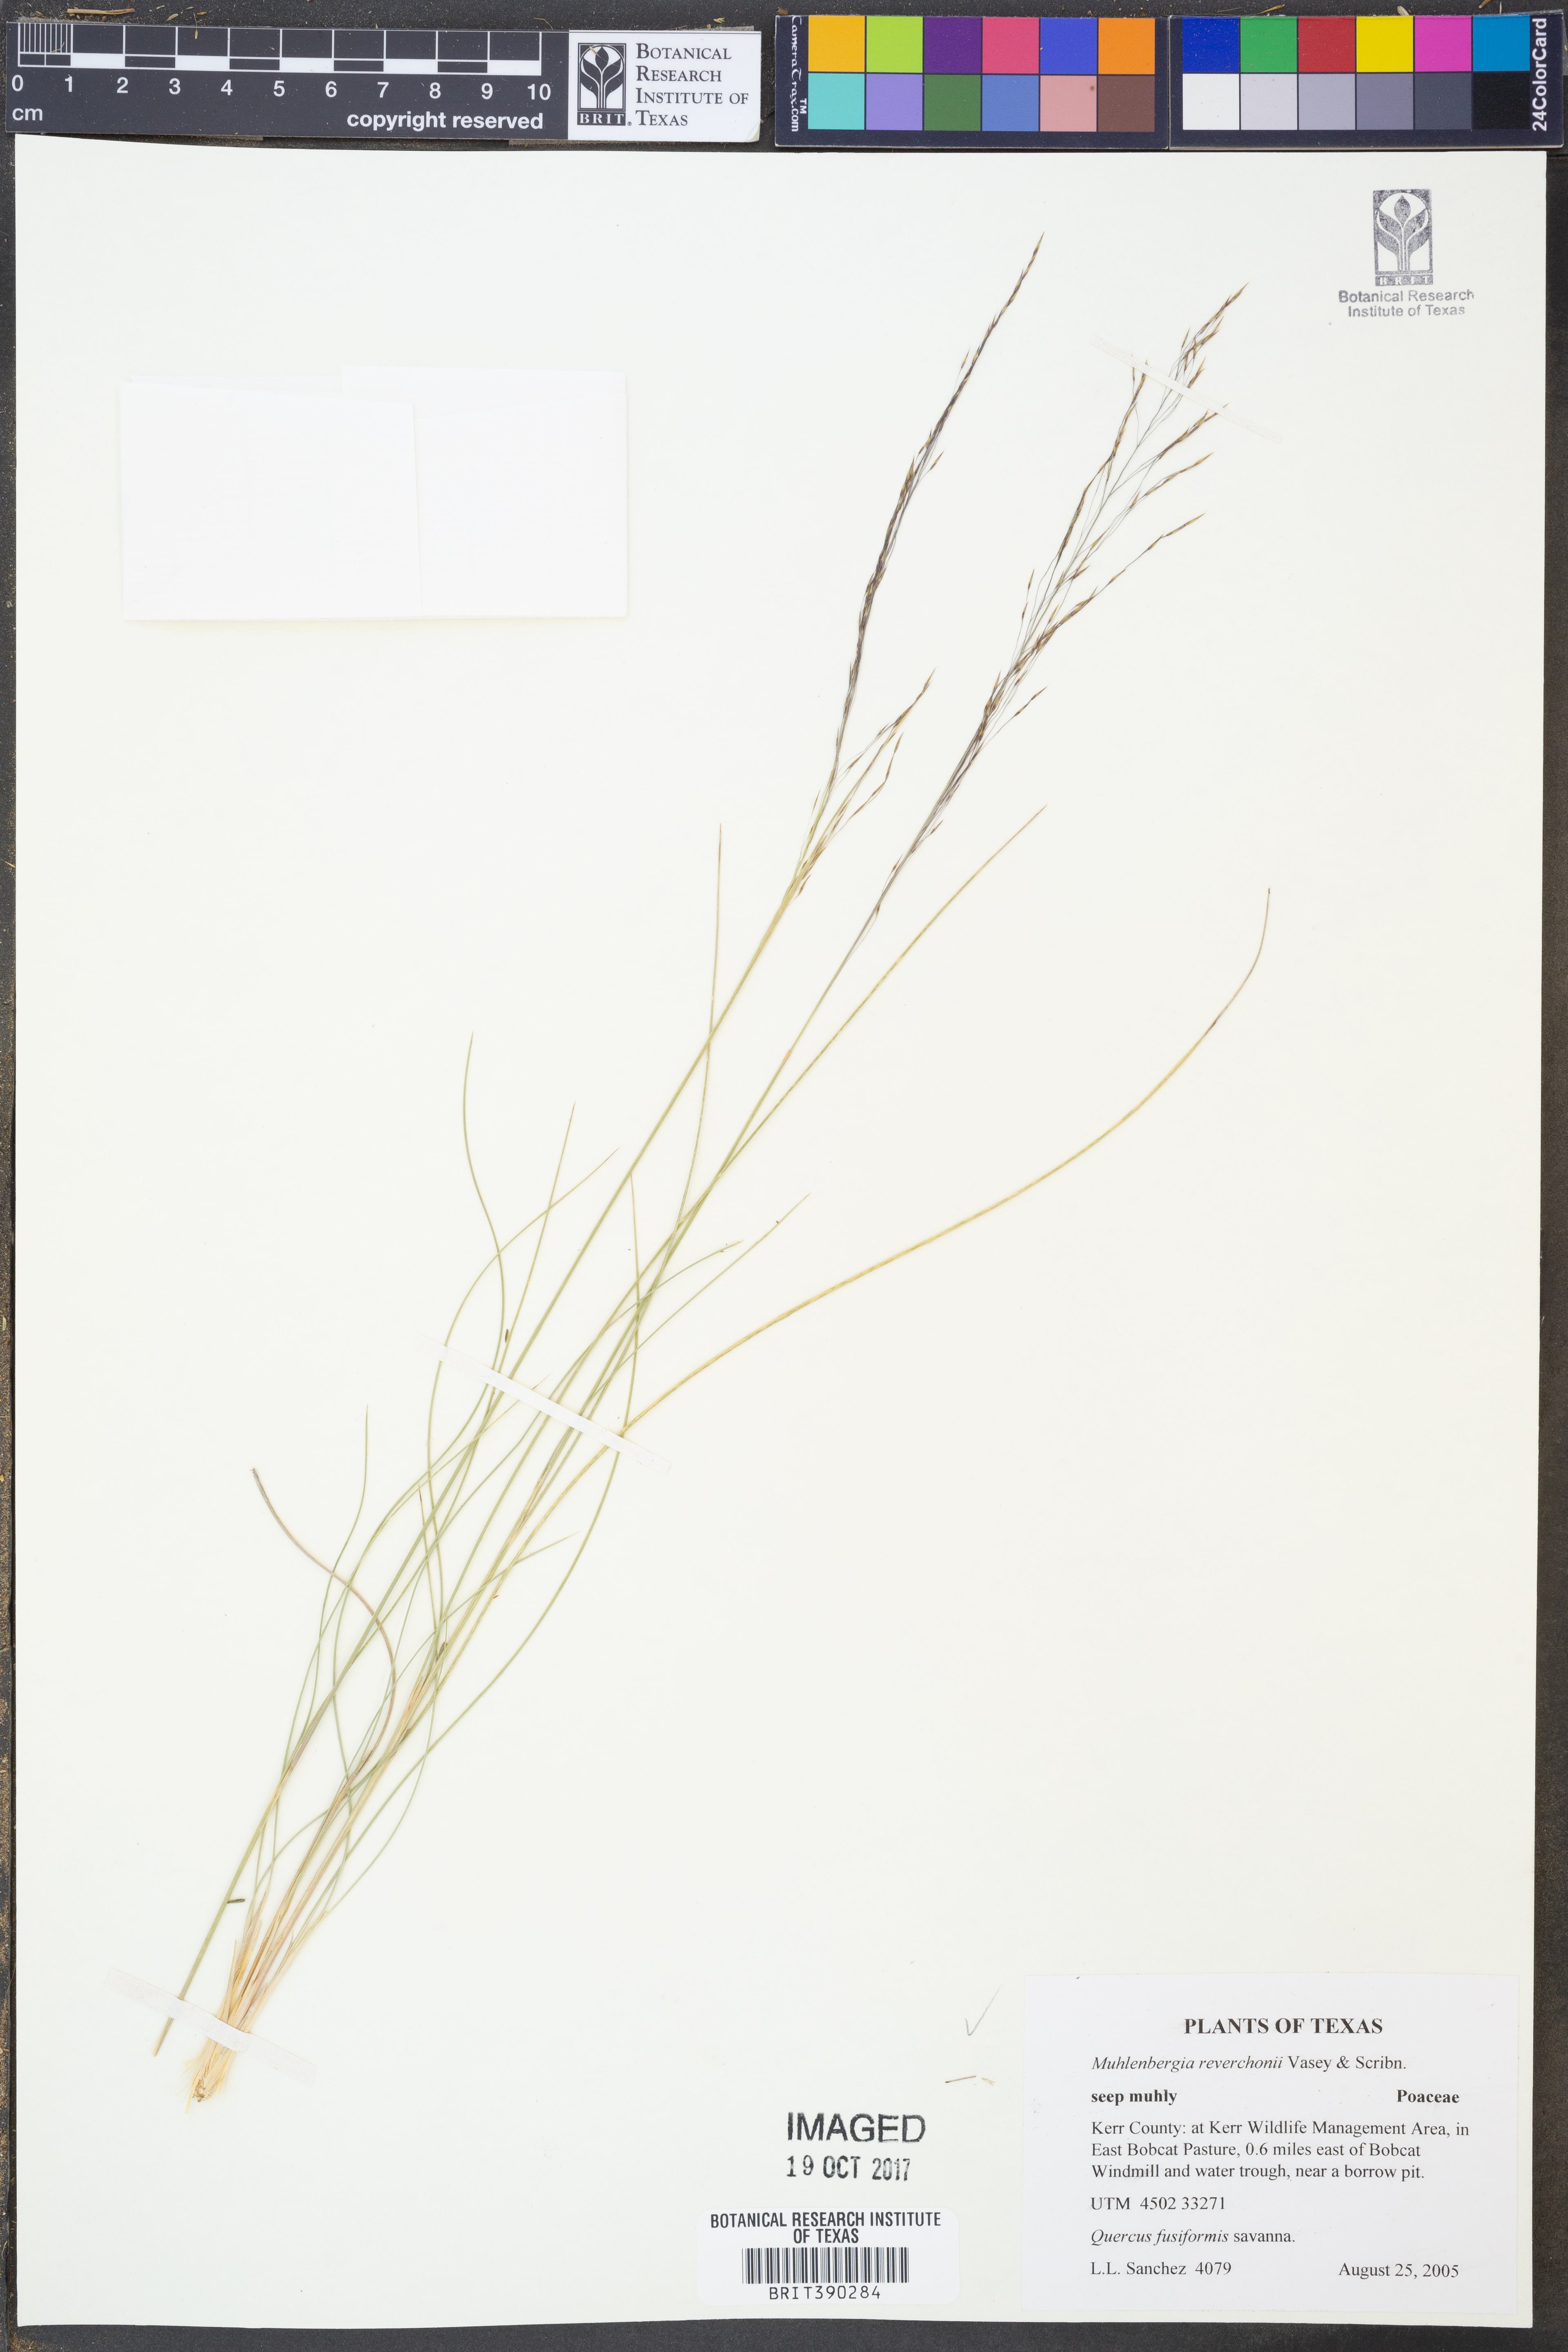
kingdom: Plantae
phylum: Tracheophyta
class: Liliopsida
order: Poales
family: Poaceae
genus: Muhlenbergia
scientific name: Muhlenbergia reverchonii
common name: Seep muhly
